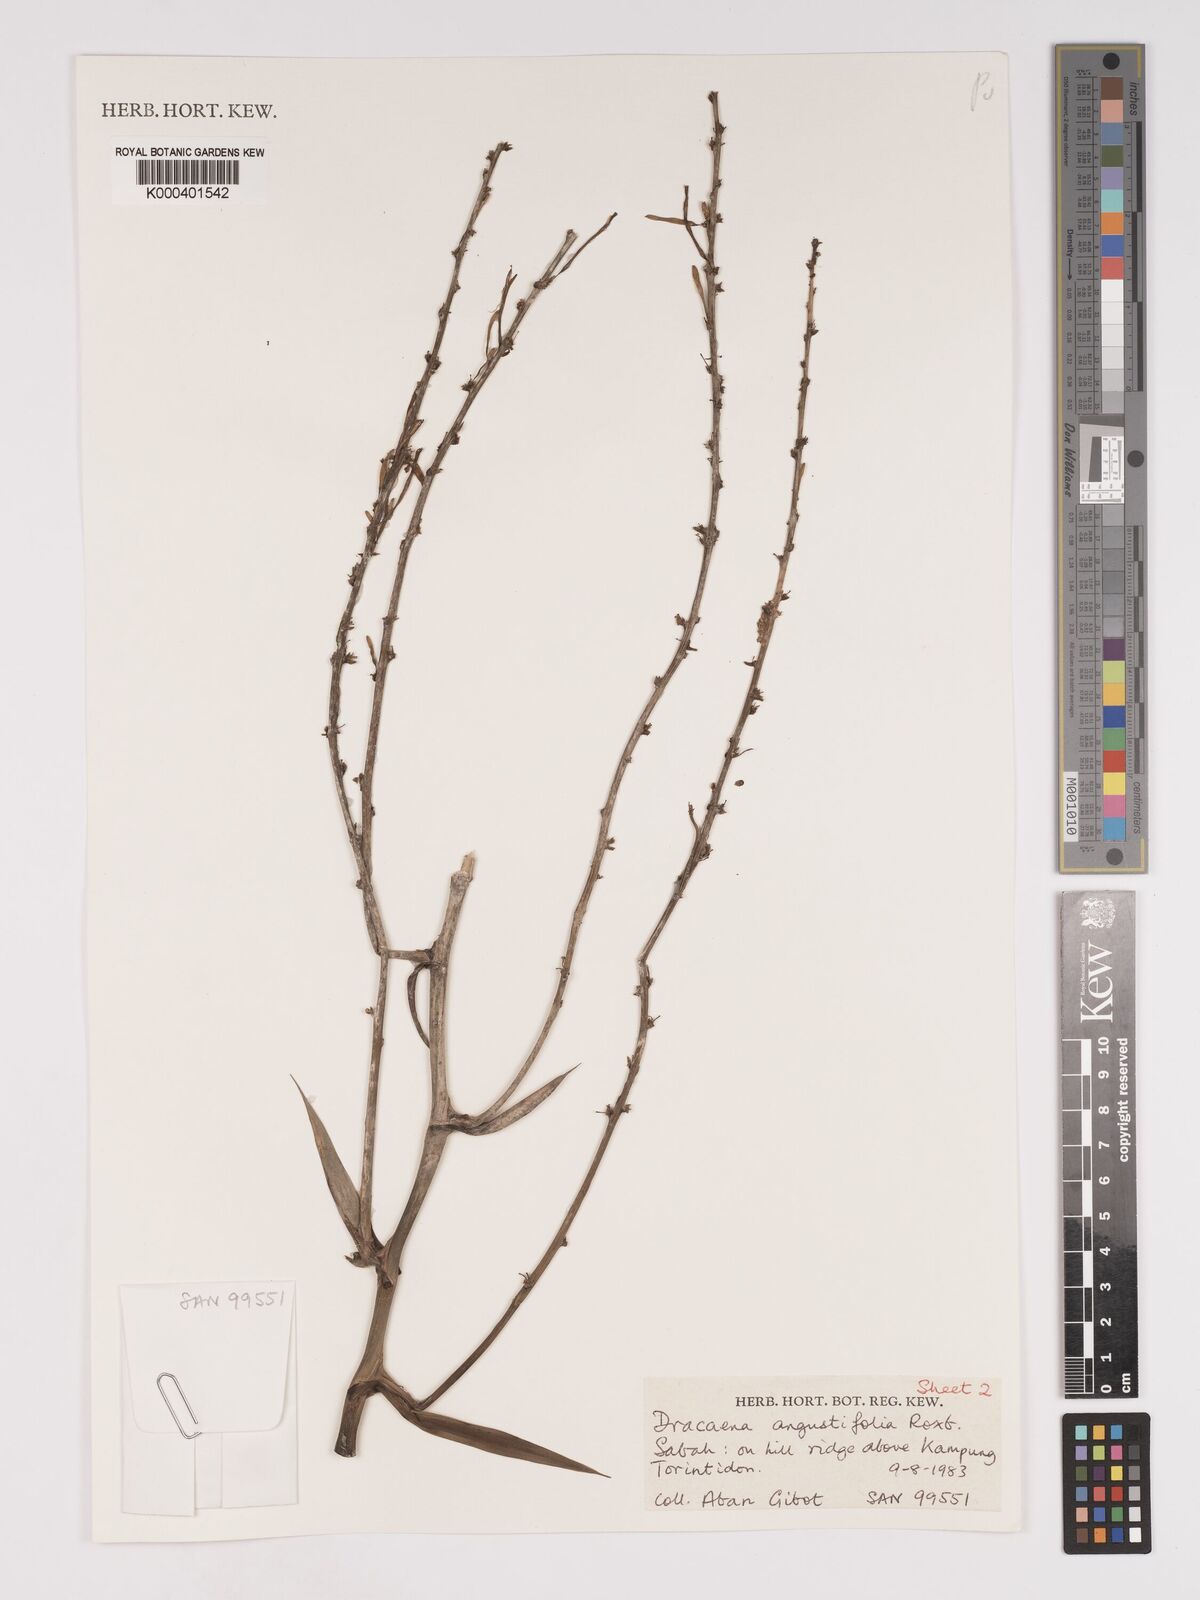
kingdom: Plantae
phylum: Tracheophyta
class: Liliopsida
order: Asparagales
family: Asparagaceae
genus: Dracaena
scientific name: Dracaena angustifolia
